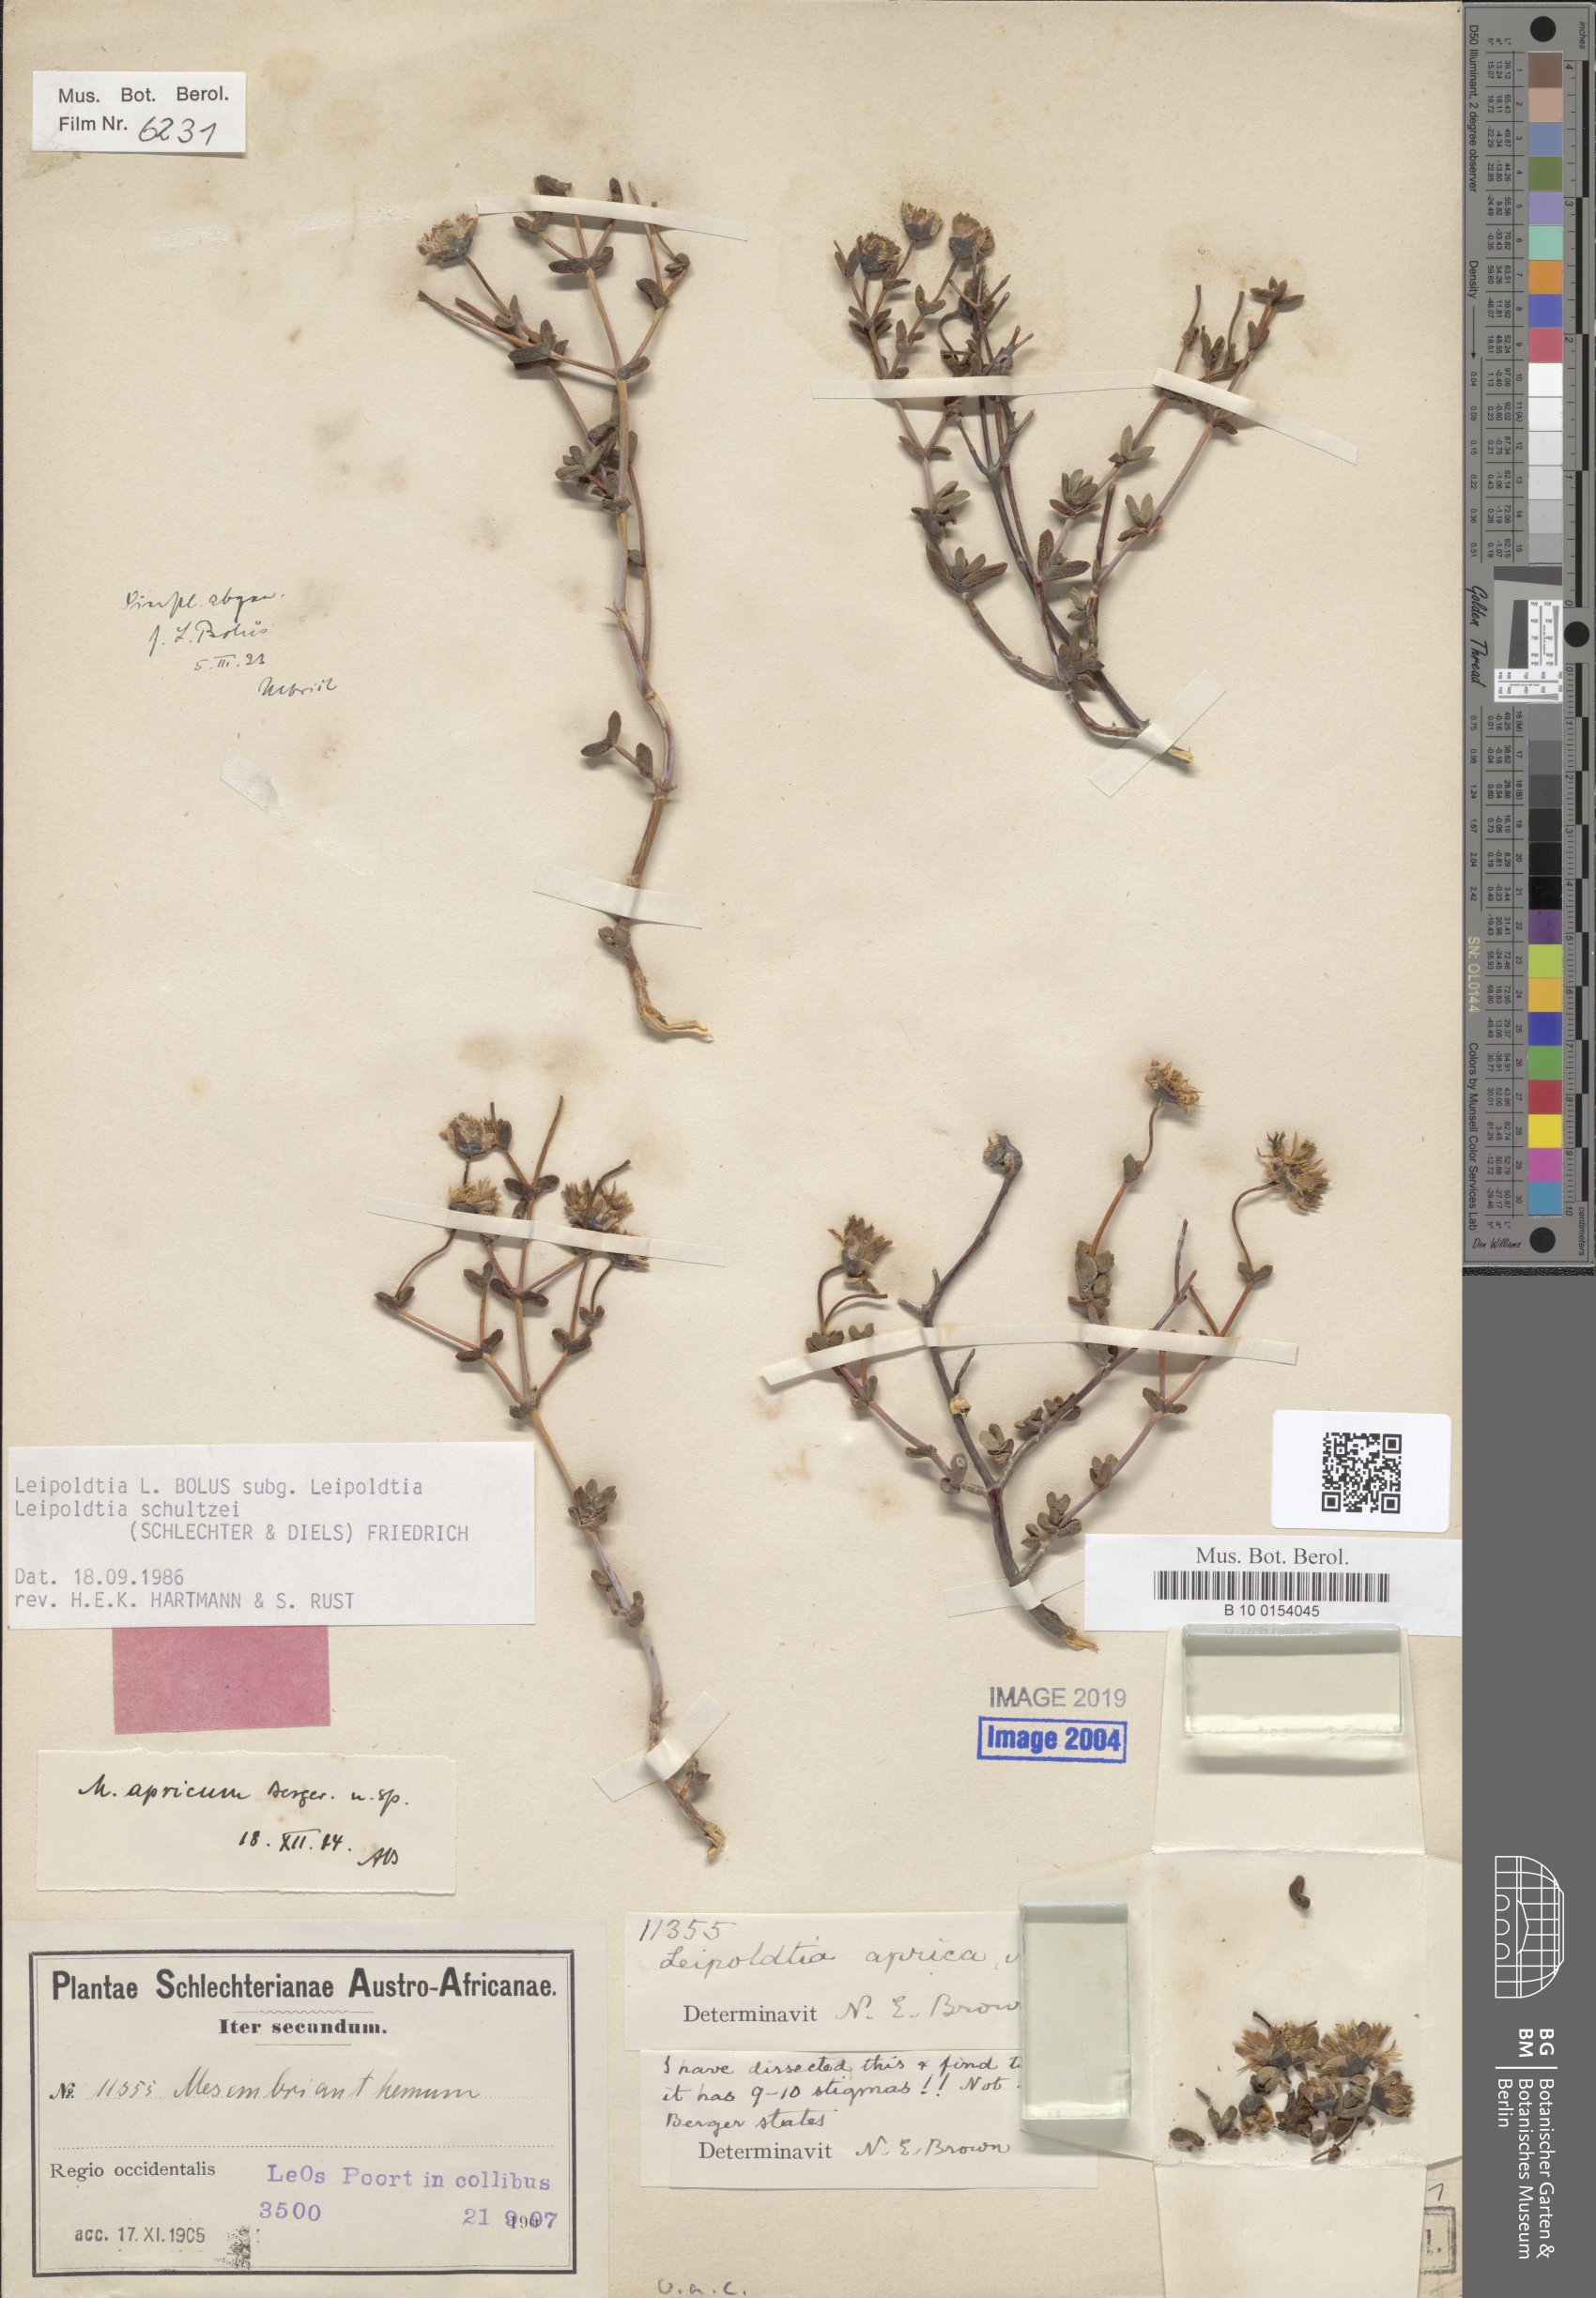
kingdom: Plantae
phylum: Tracheophyta
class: Magnoliopsida
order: Caryophyllales
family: Aizoaceae
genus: Leipoldtia
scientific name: Leipoldtia schultzei
